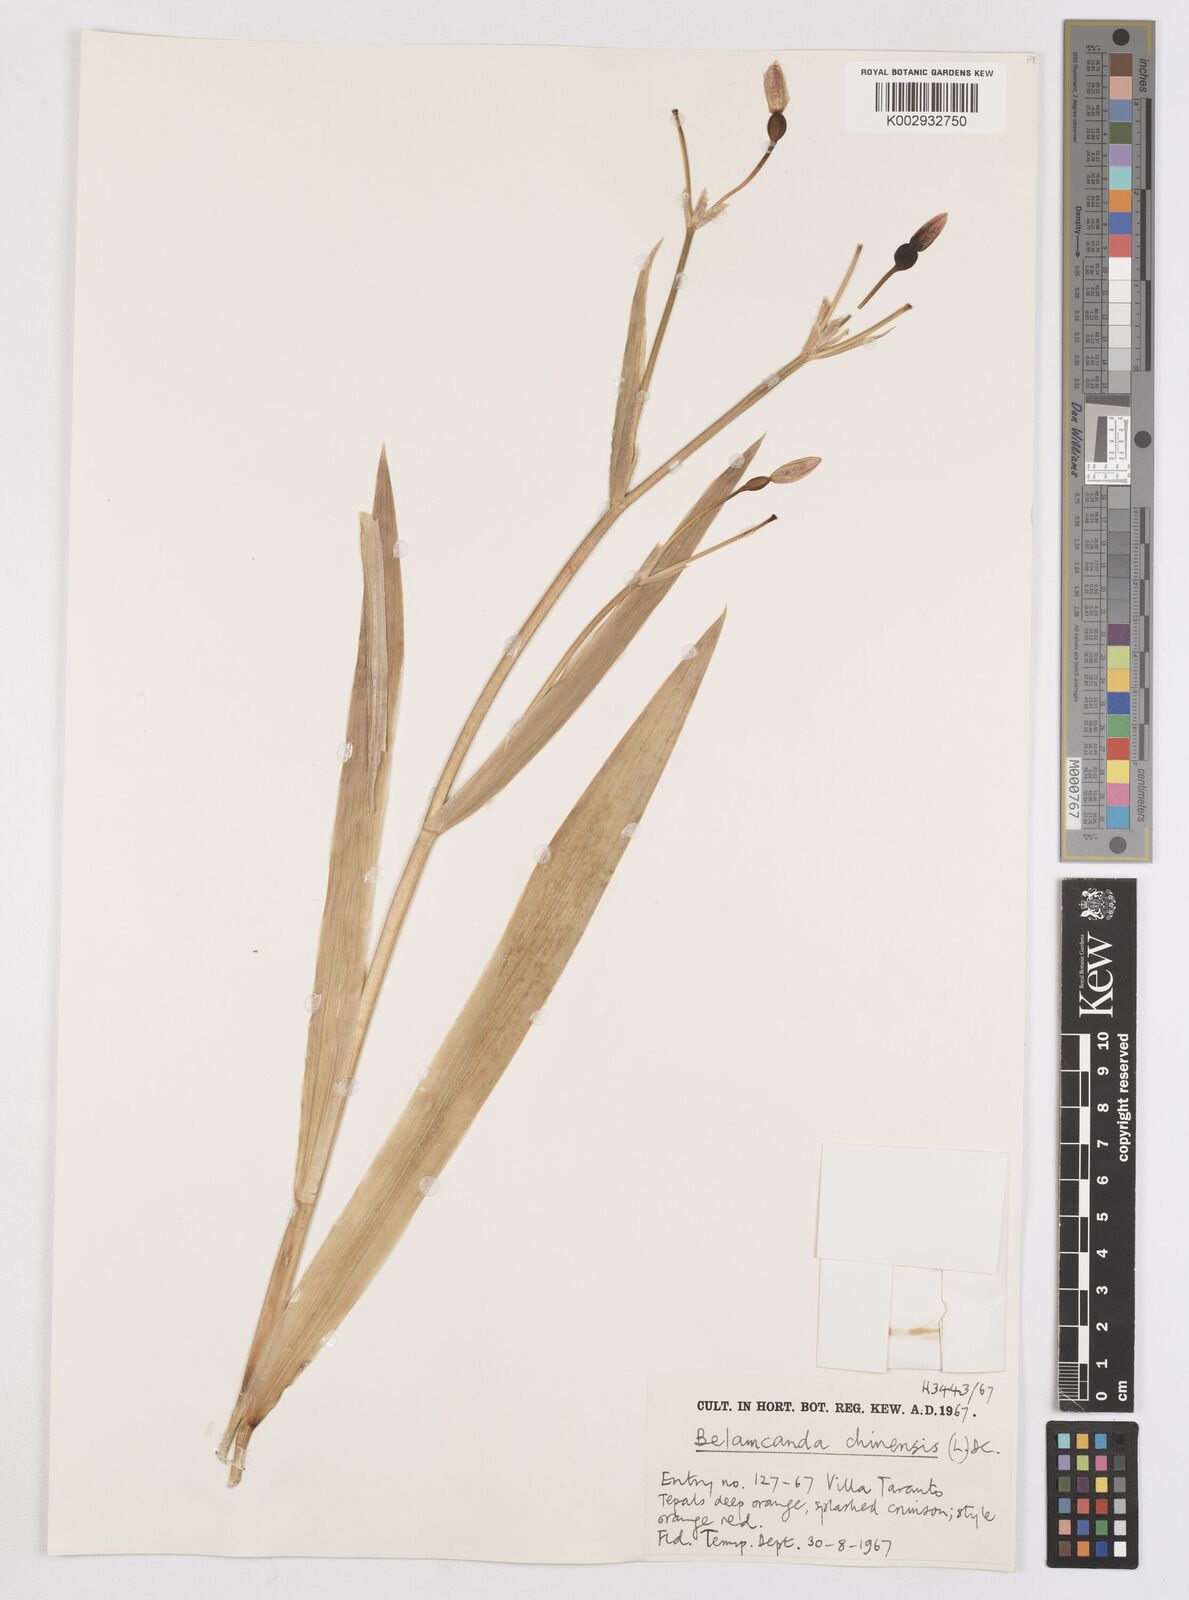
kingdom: Plantae
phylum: Tracheophyta
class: Liliopsida
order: Asparagales
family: Iridaceae
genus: Iris
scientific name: Iris
